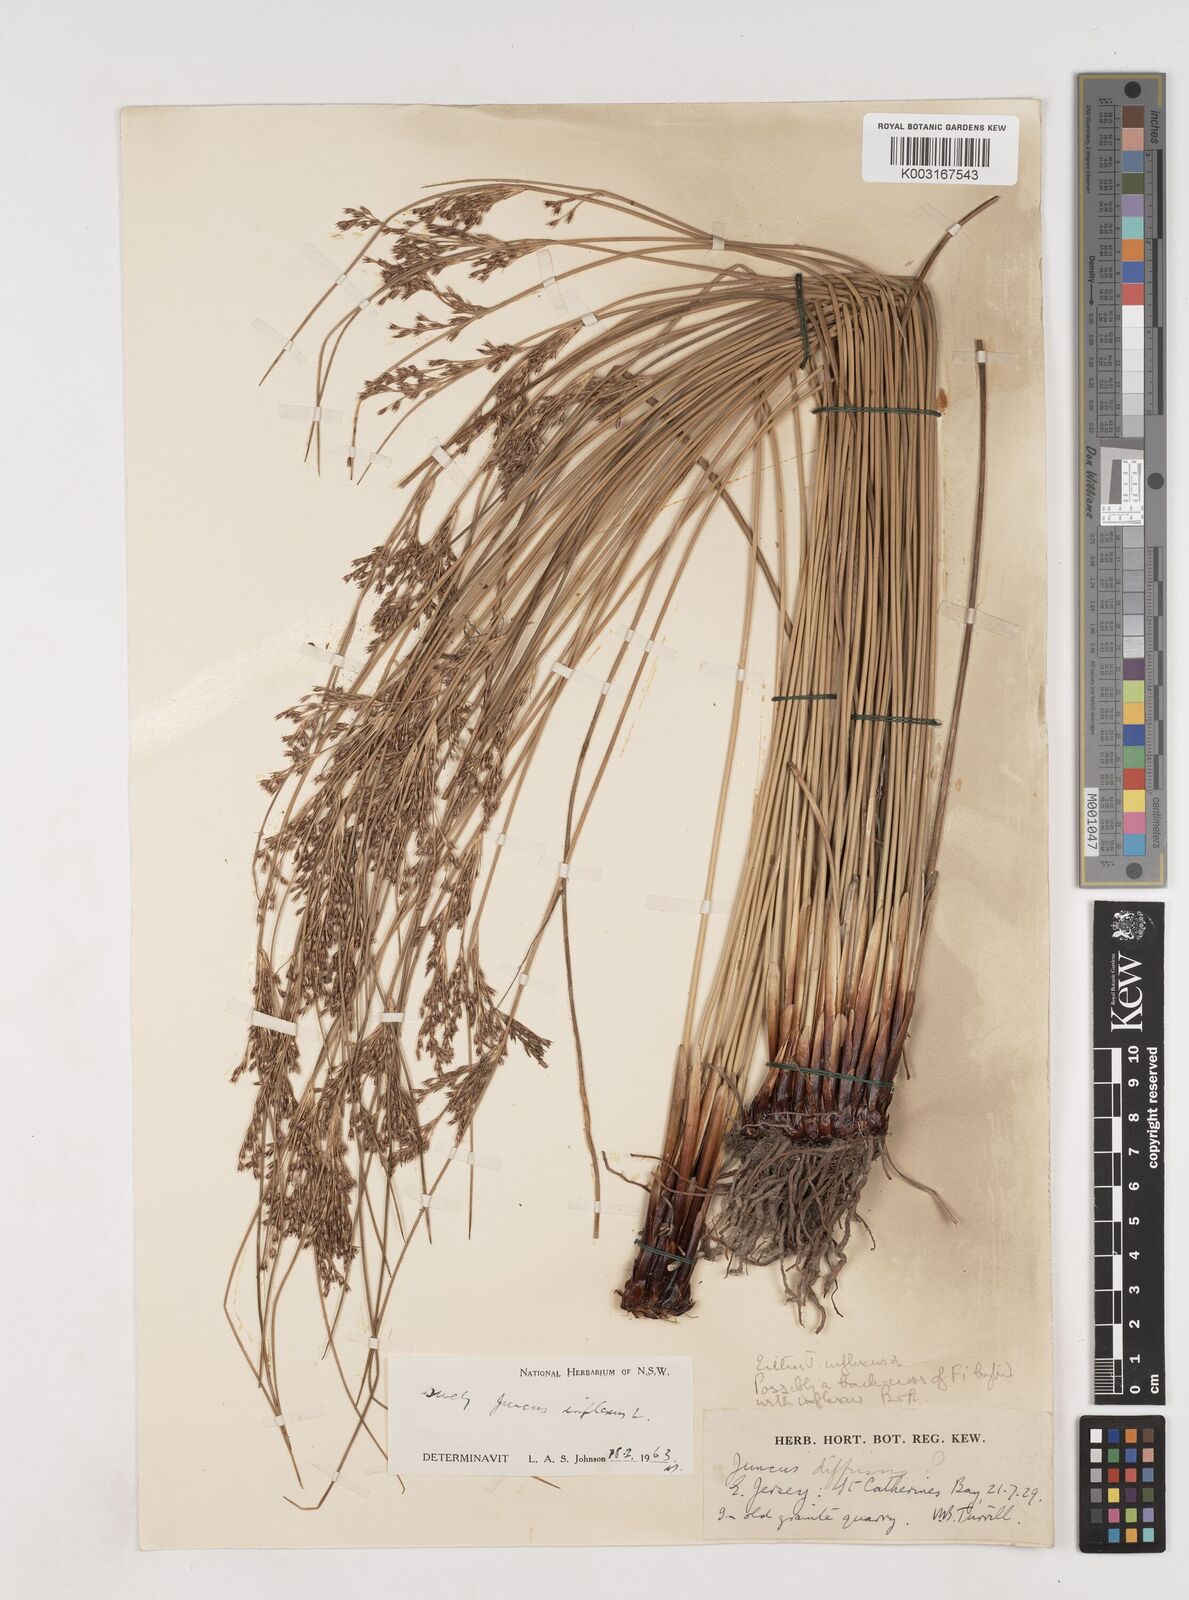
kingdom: Plantae
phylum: Tracheophyta
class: Liliopsida
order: Poales
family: Juncaceae
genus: Juncus
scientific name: Juncus inflexus
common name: Hard rush
